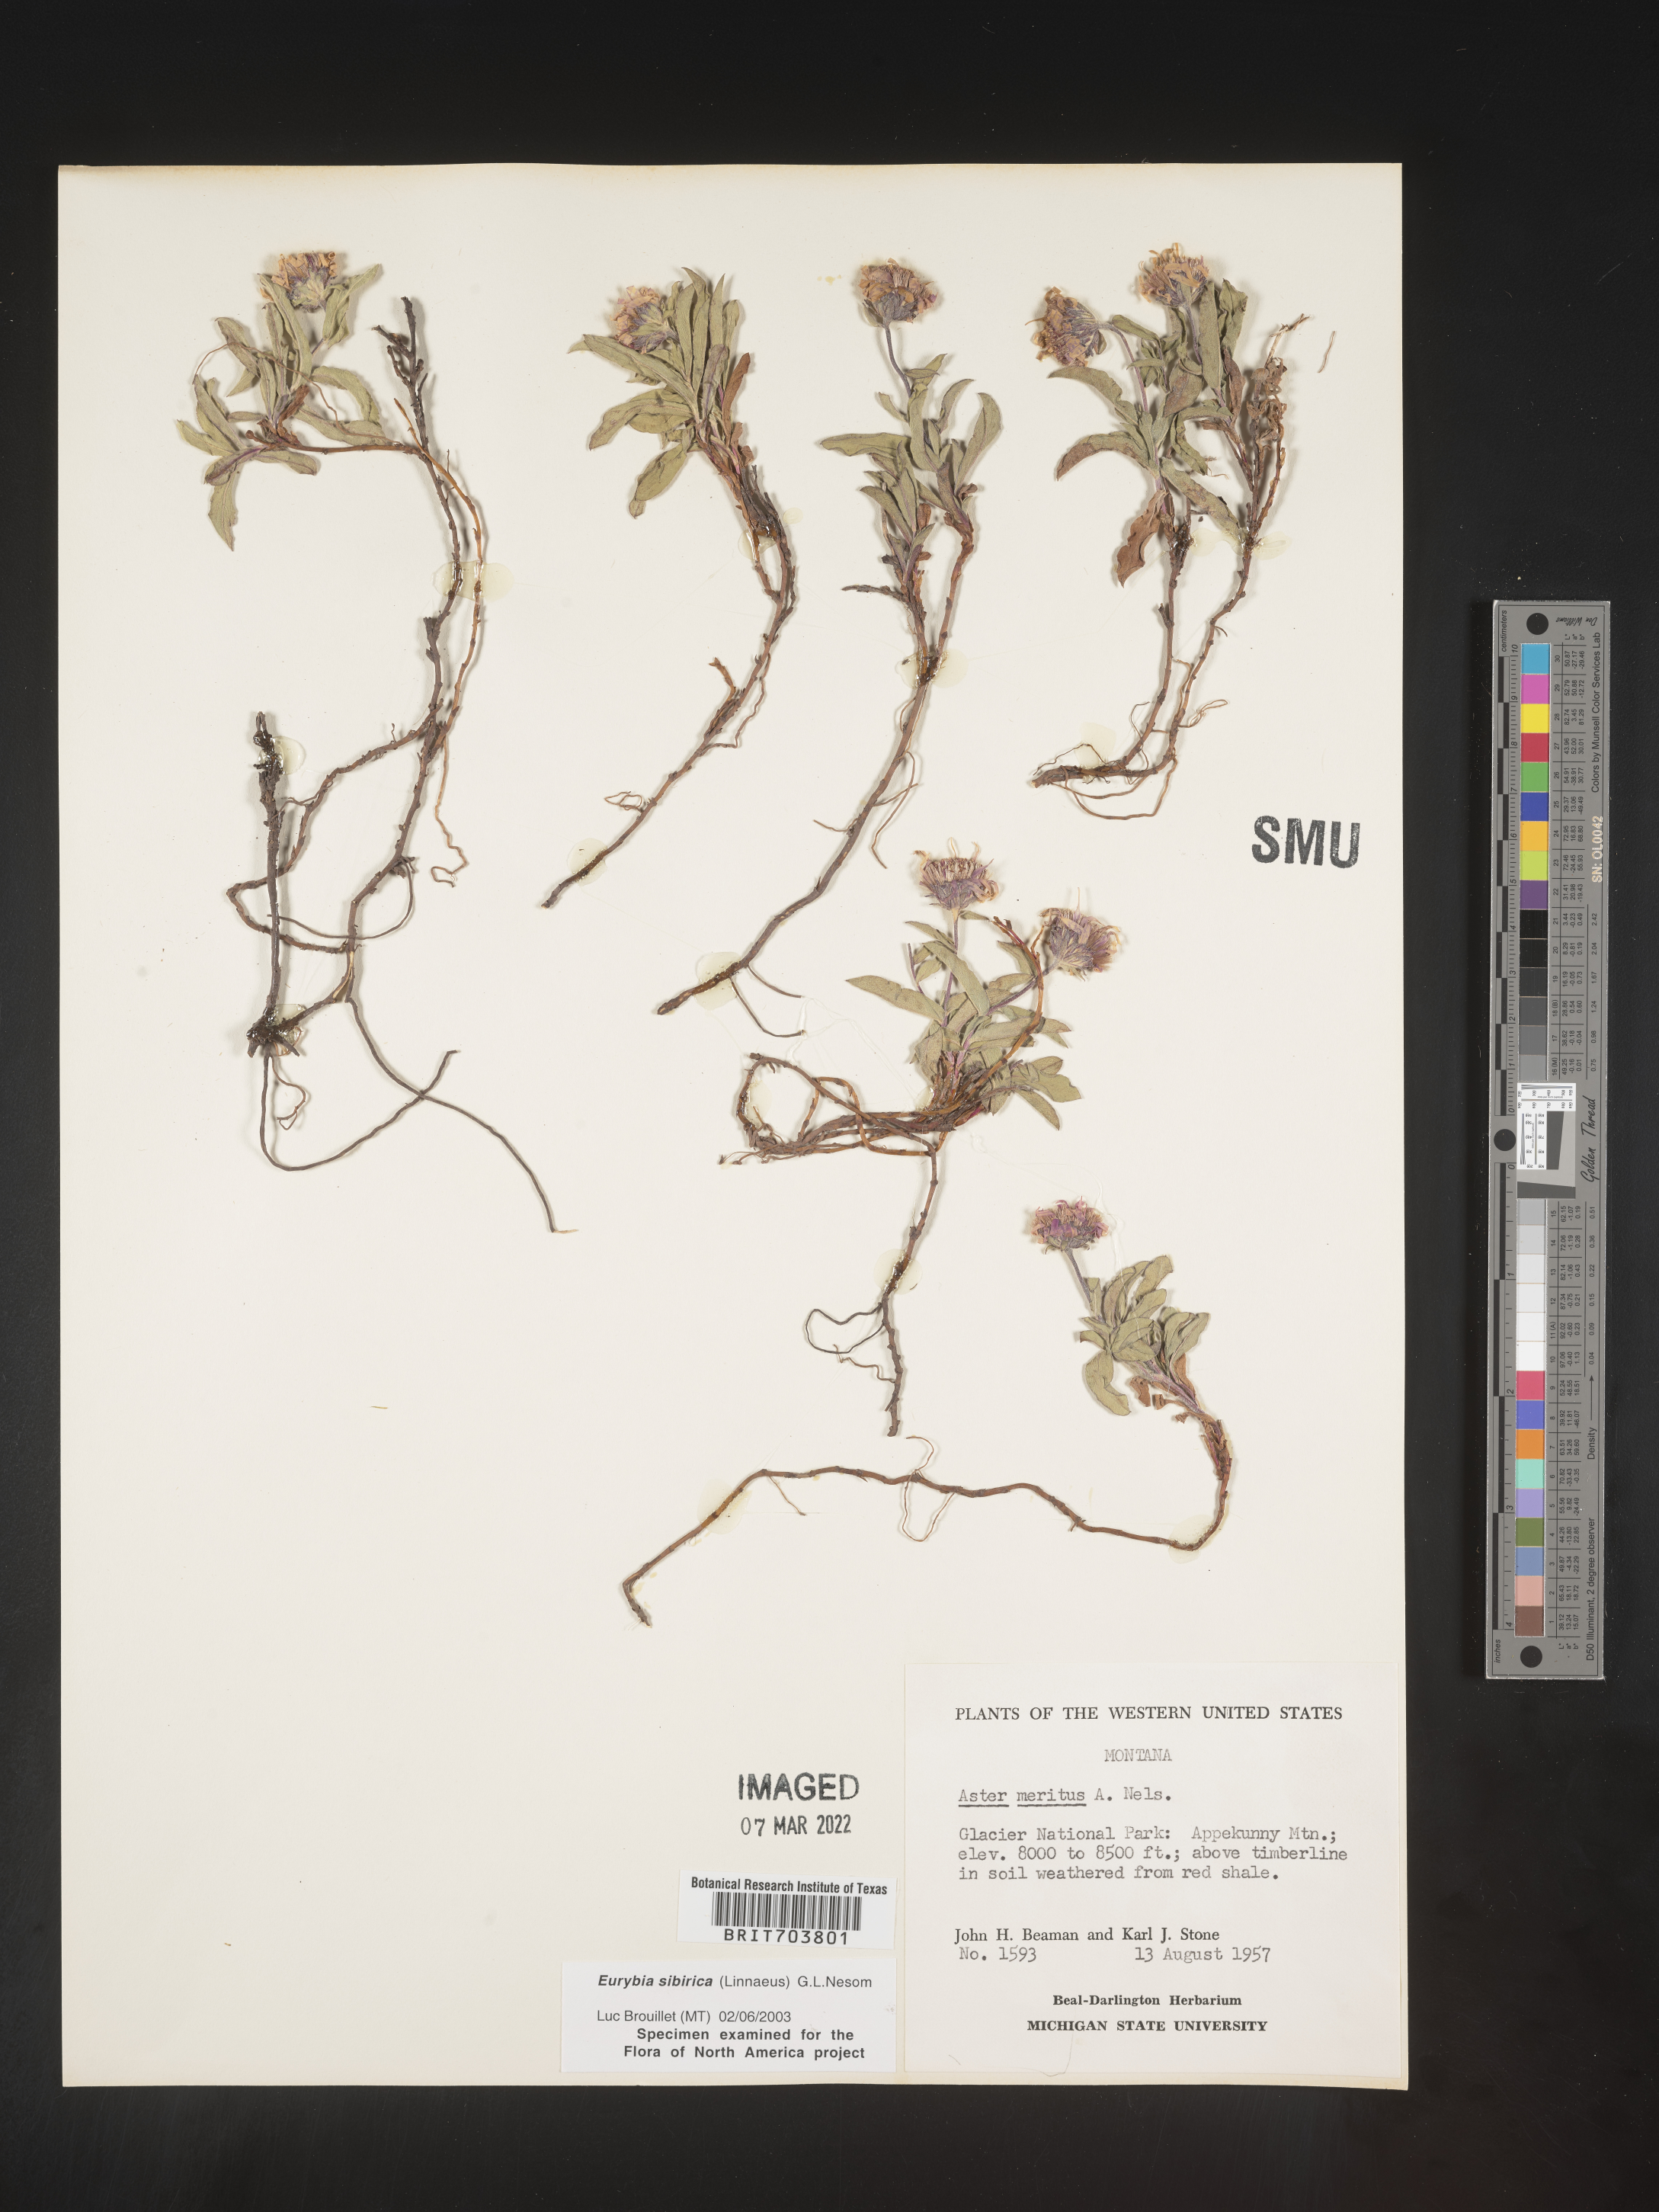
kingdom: Plantae
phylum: Tracheophyta
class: Magnoliopsida
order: Asterales
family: Asteraceae
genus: Eurybia
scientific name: Eurybia sibirica
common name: Arctic aster
